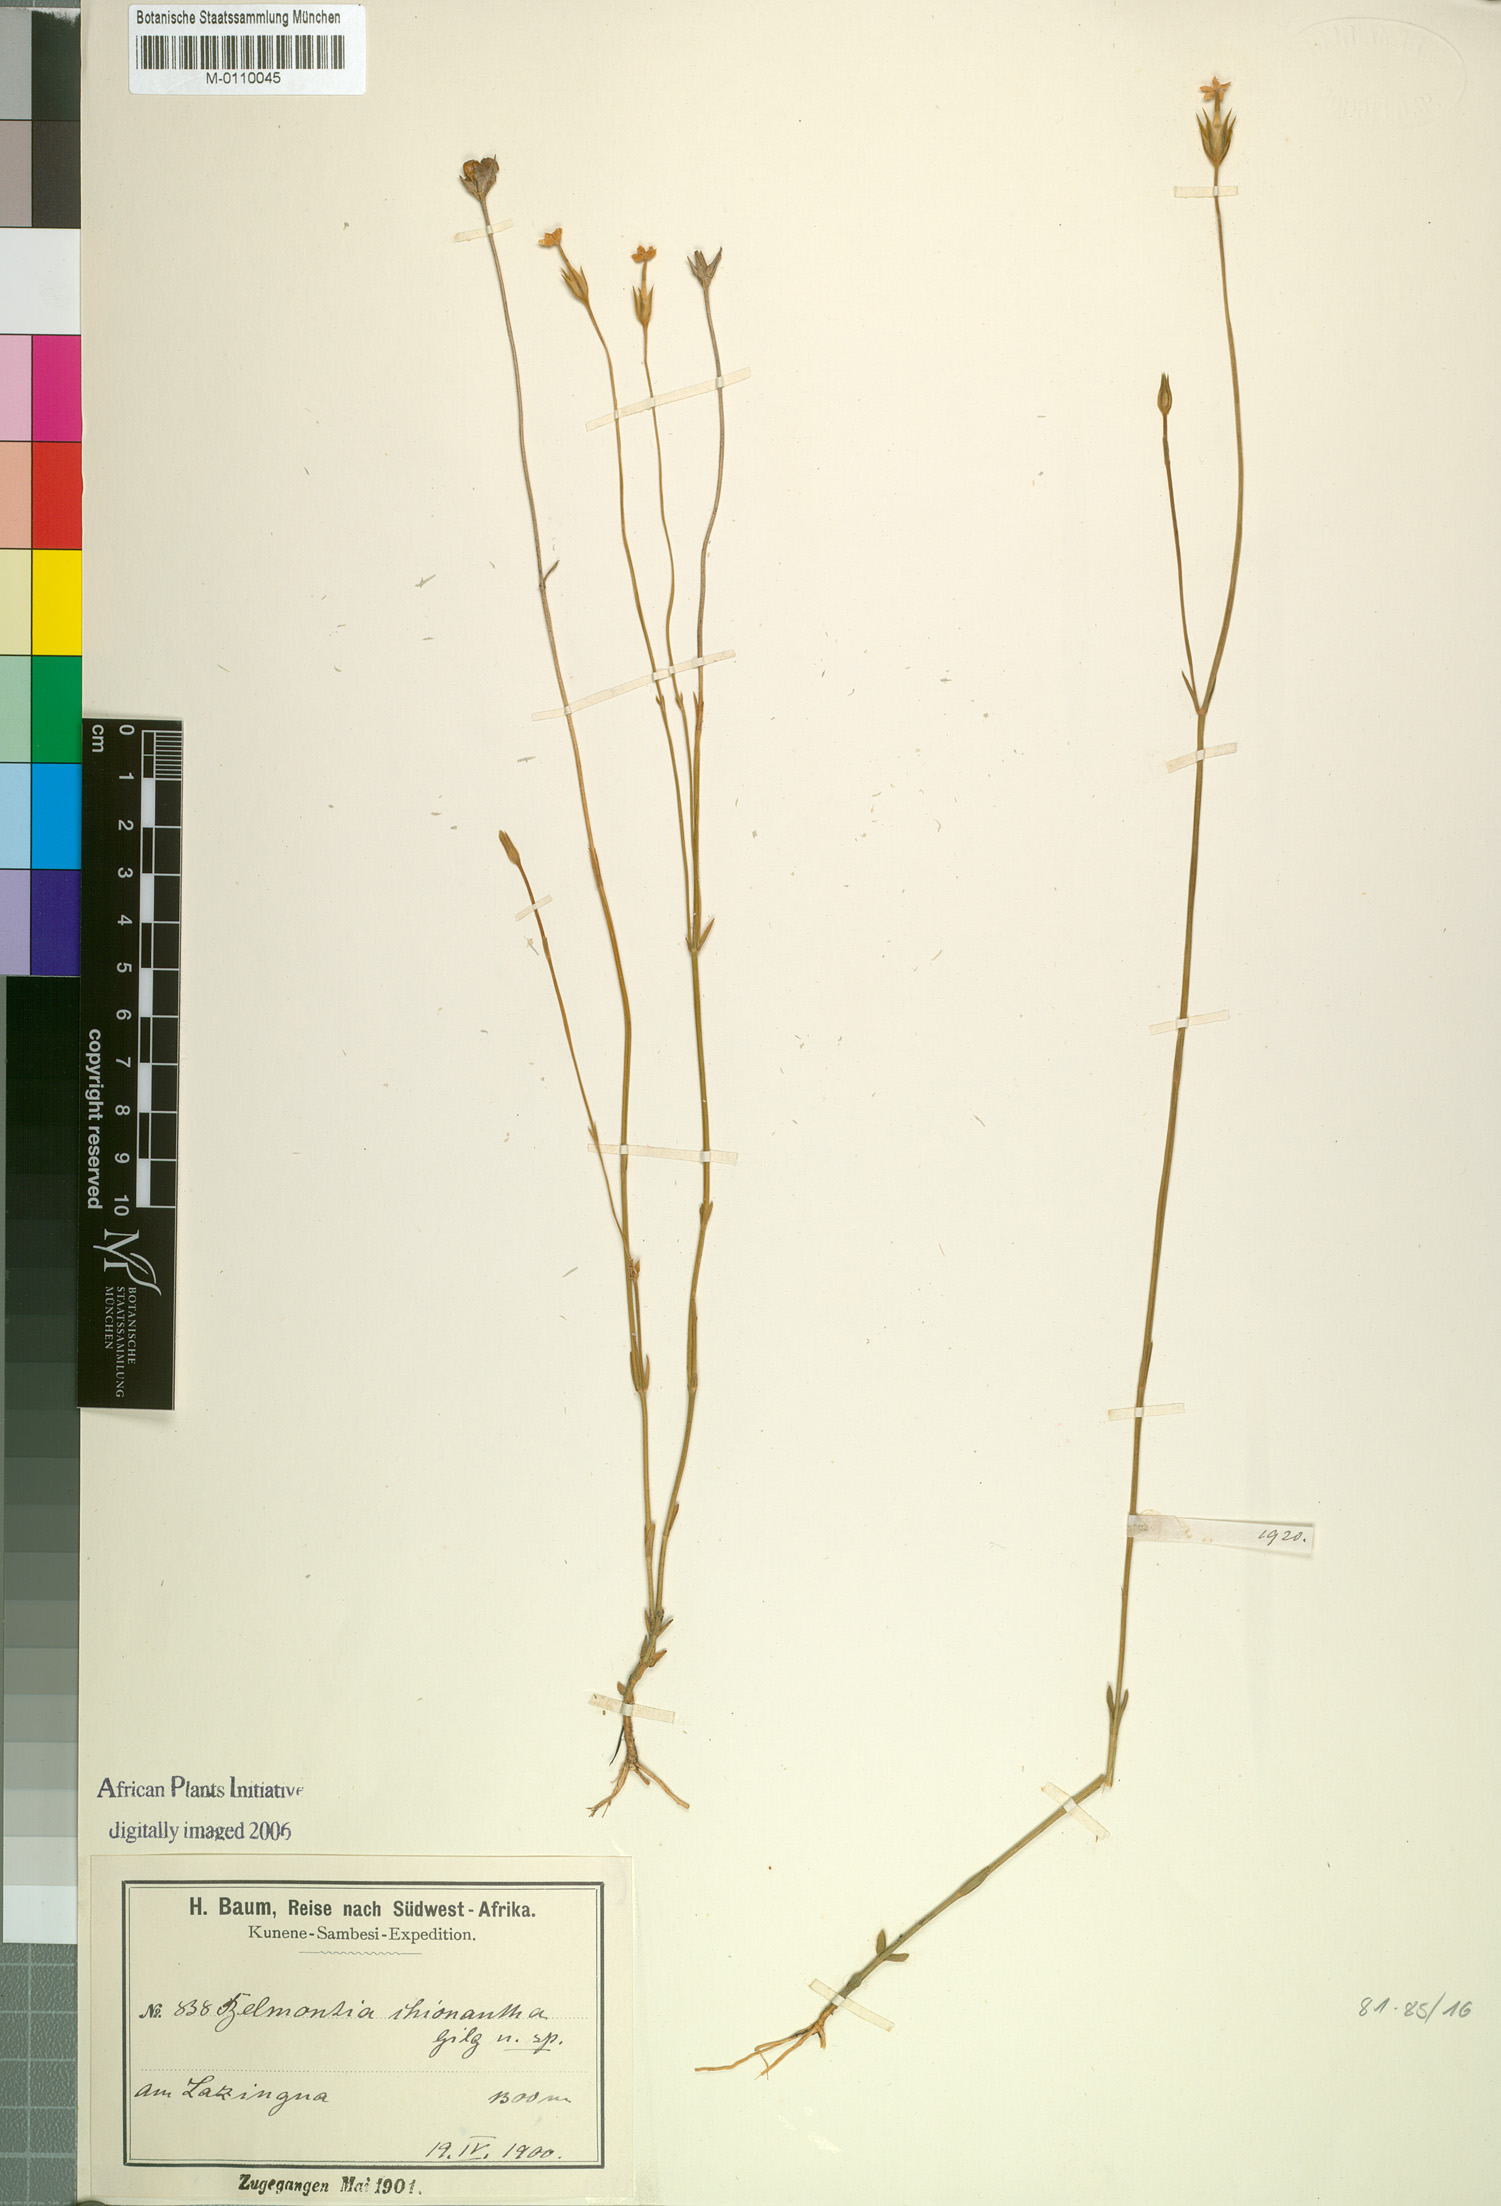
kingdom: Plantae
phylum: Tracheophyta
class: Magnoliopsida
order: Gentianales
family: Gentianaceae
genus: Exochaenium
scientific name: Exochaenium teuszii
